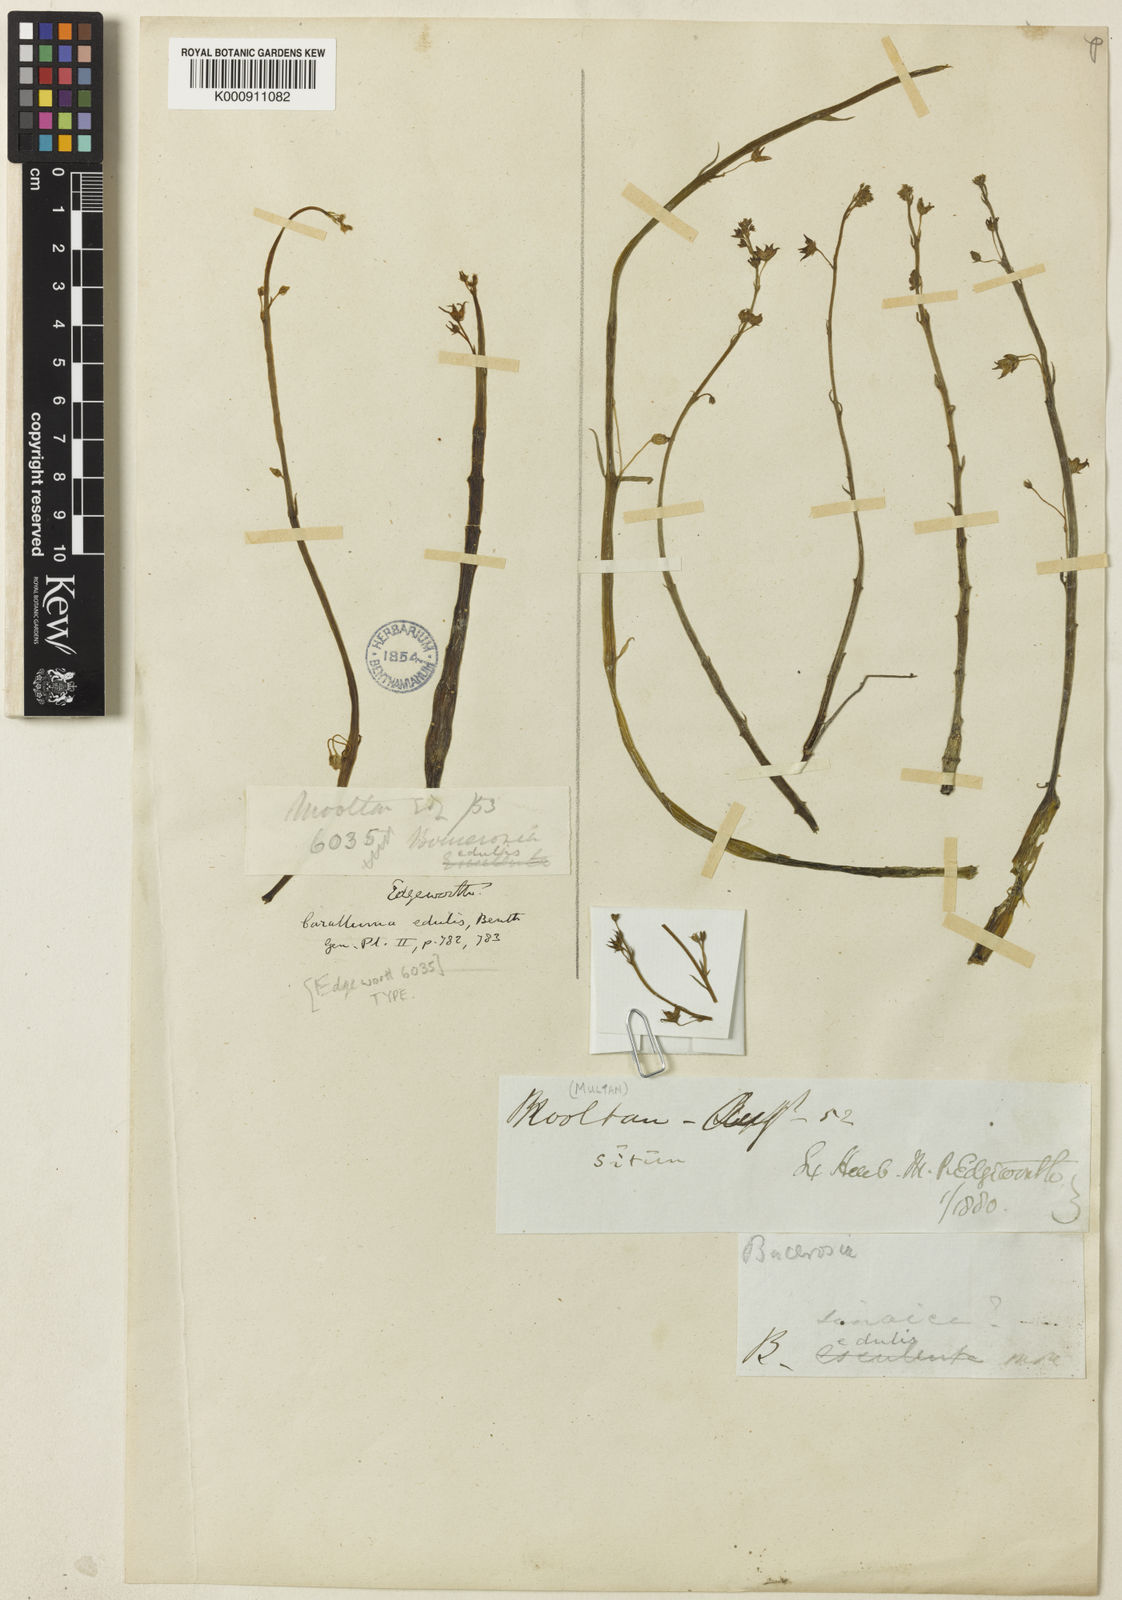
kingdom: Plantae
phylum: Tracheophyta
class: Magnoliopsida
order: Gentianales
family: Apocynaceae
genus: Ceropegia
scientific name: Ceropegia edulis
